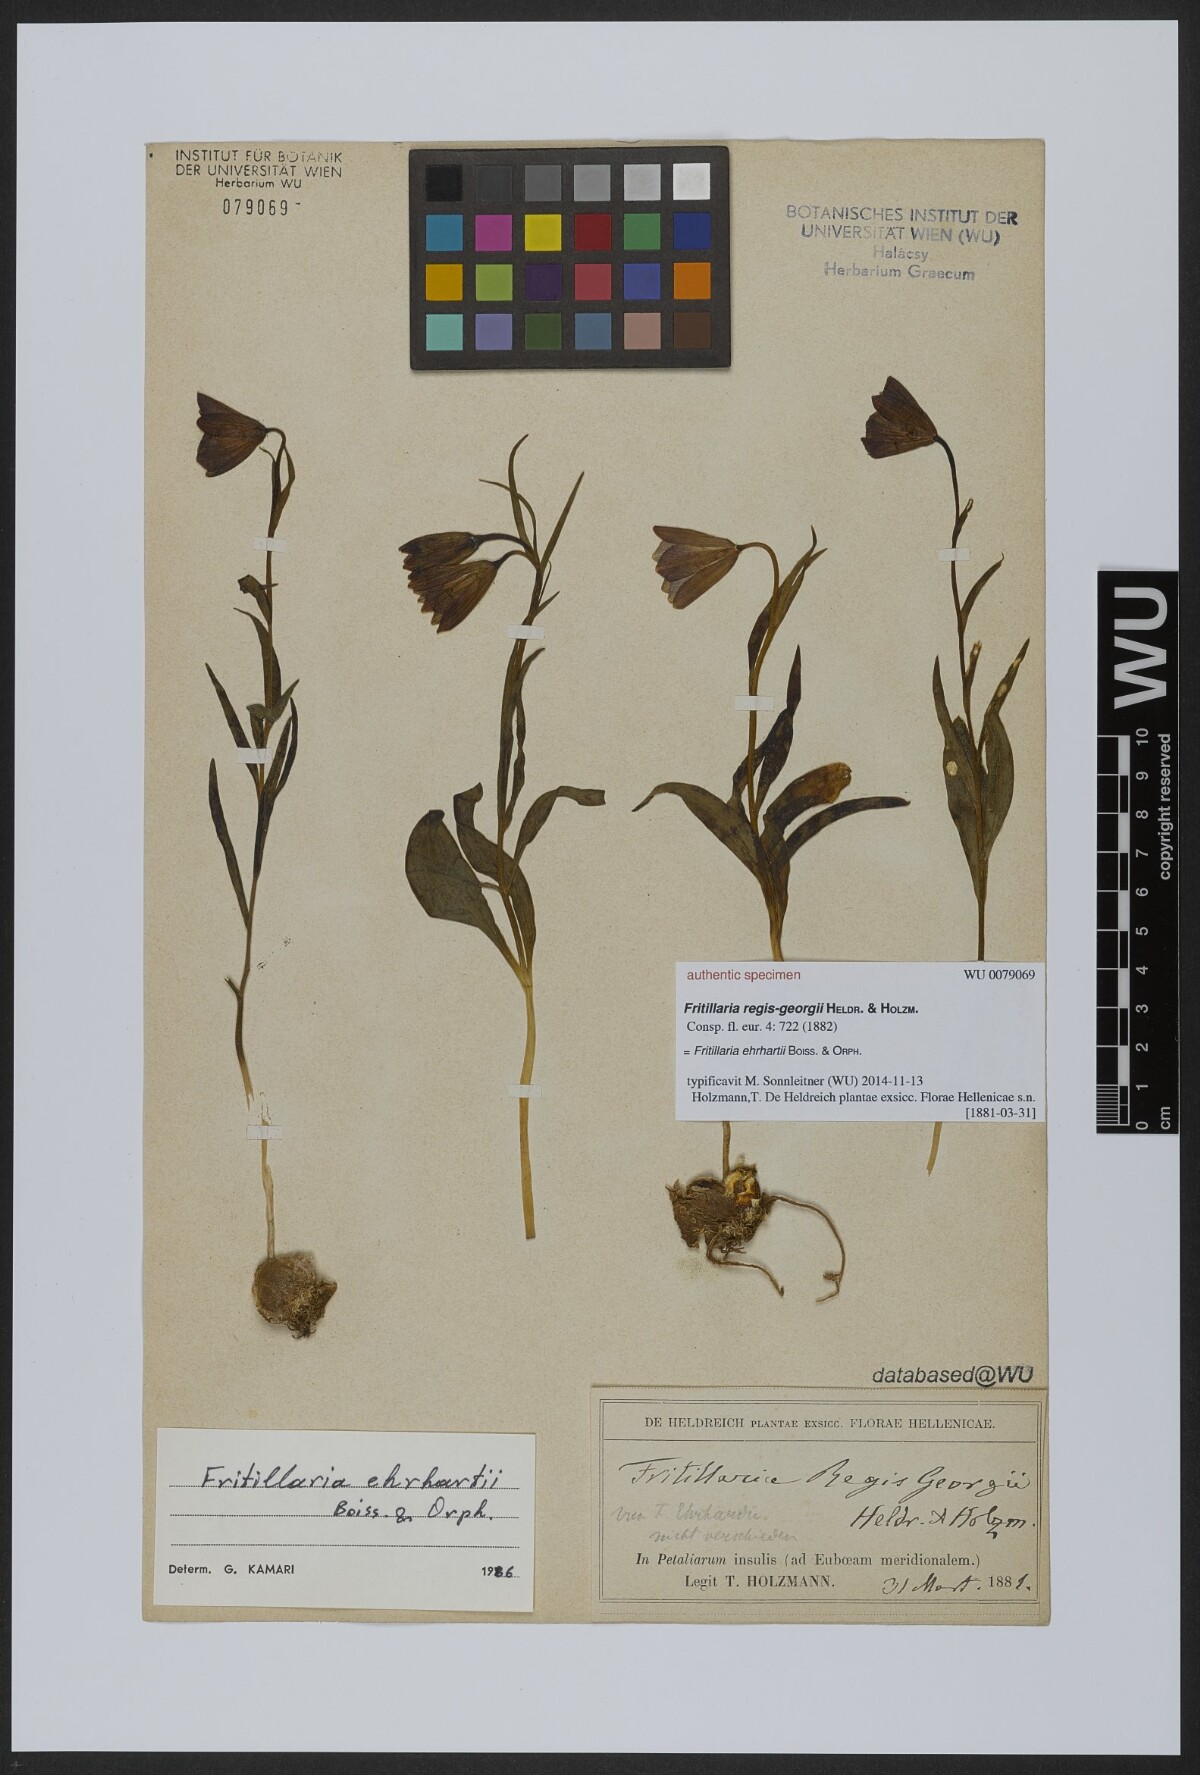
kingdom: Plantae
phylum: Tracheophyta
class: Liliopsida
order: Liliales
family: Liliaceae
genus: Fritillaria
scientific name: Fritillaria ehrhartii
